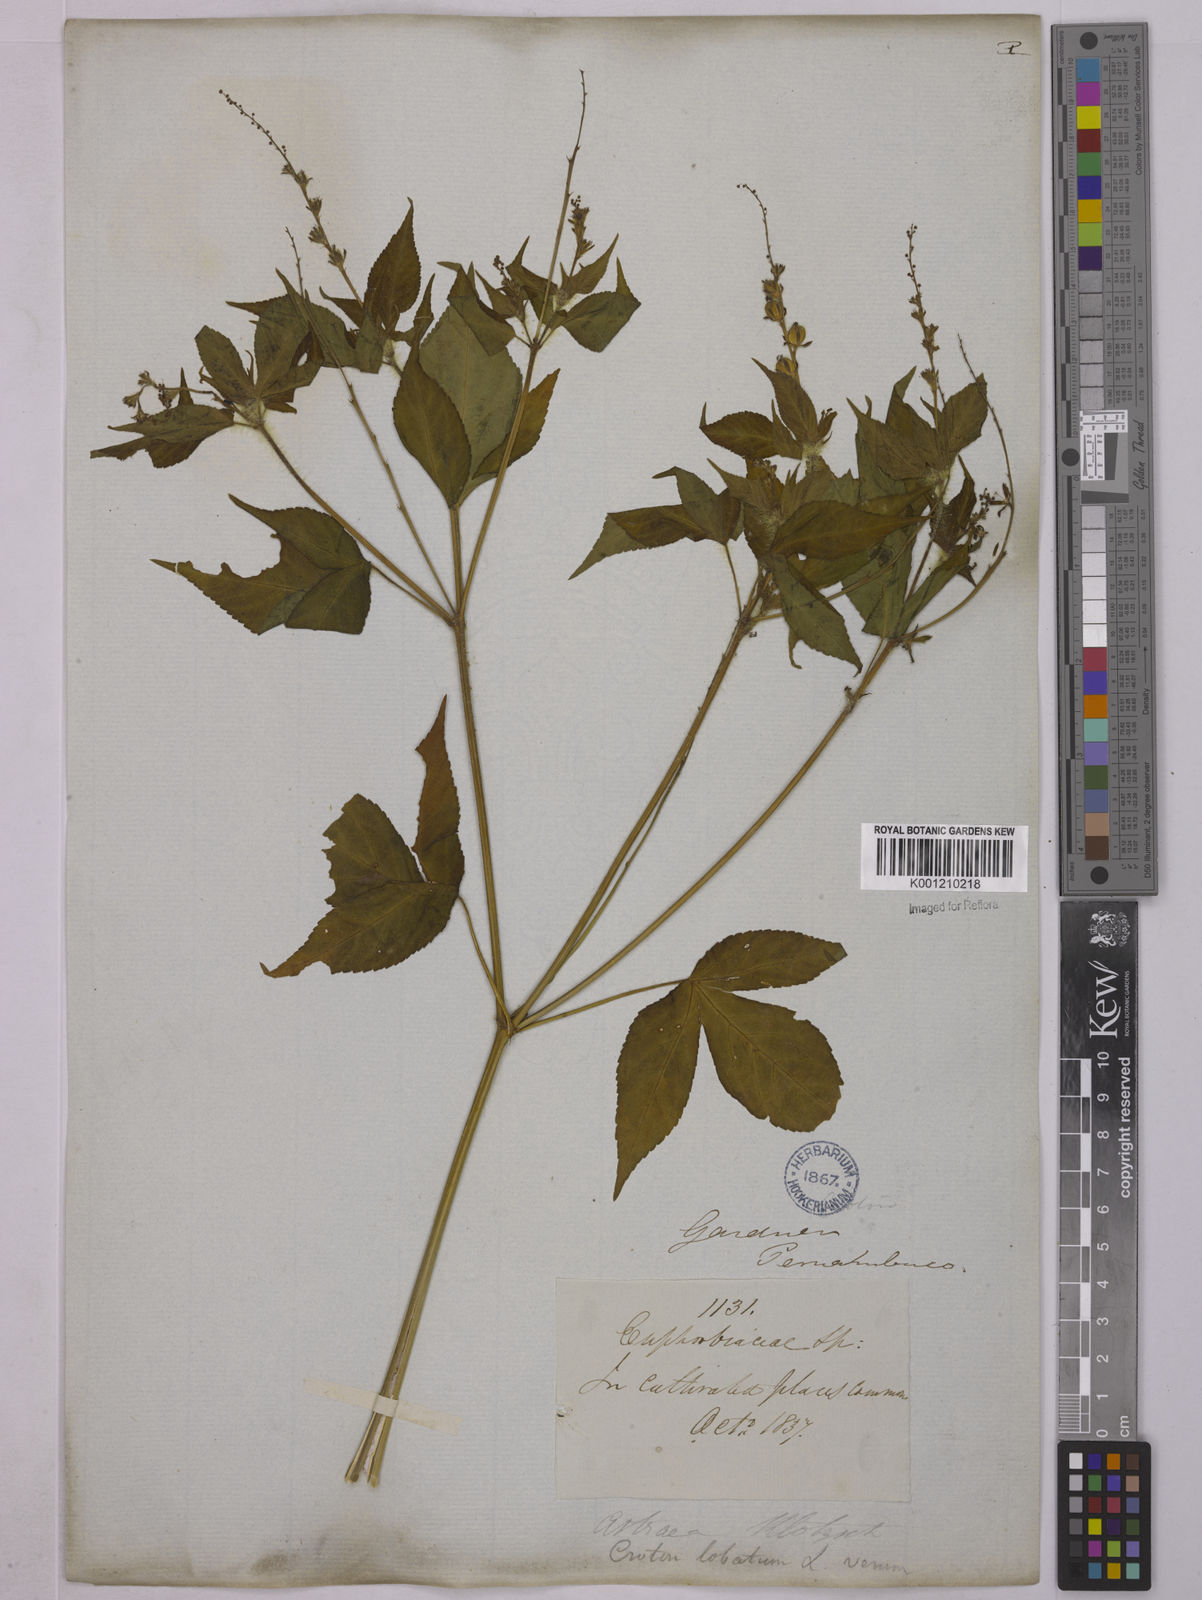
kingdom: Plantae
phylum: Tracheophyta
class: Magnoliopsida
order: Malpighiales
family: Euphorbiaceae
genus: Astraea
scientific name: Astraea lobata
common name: Lobed croton
